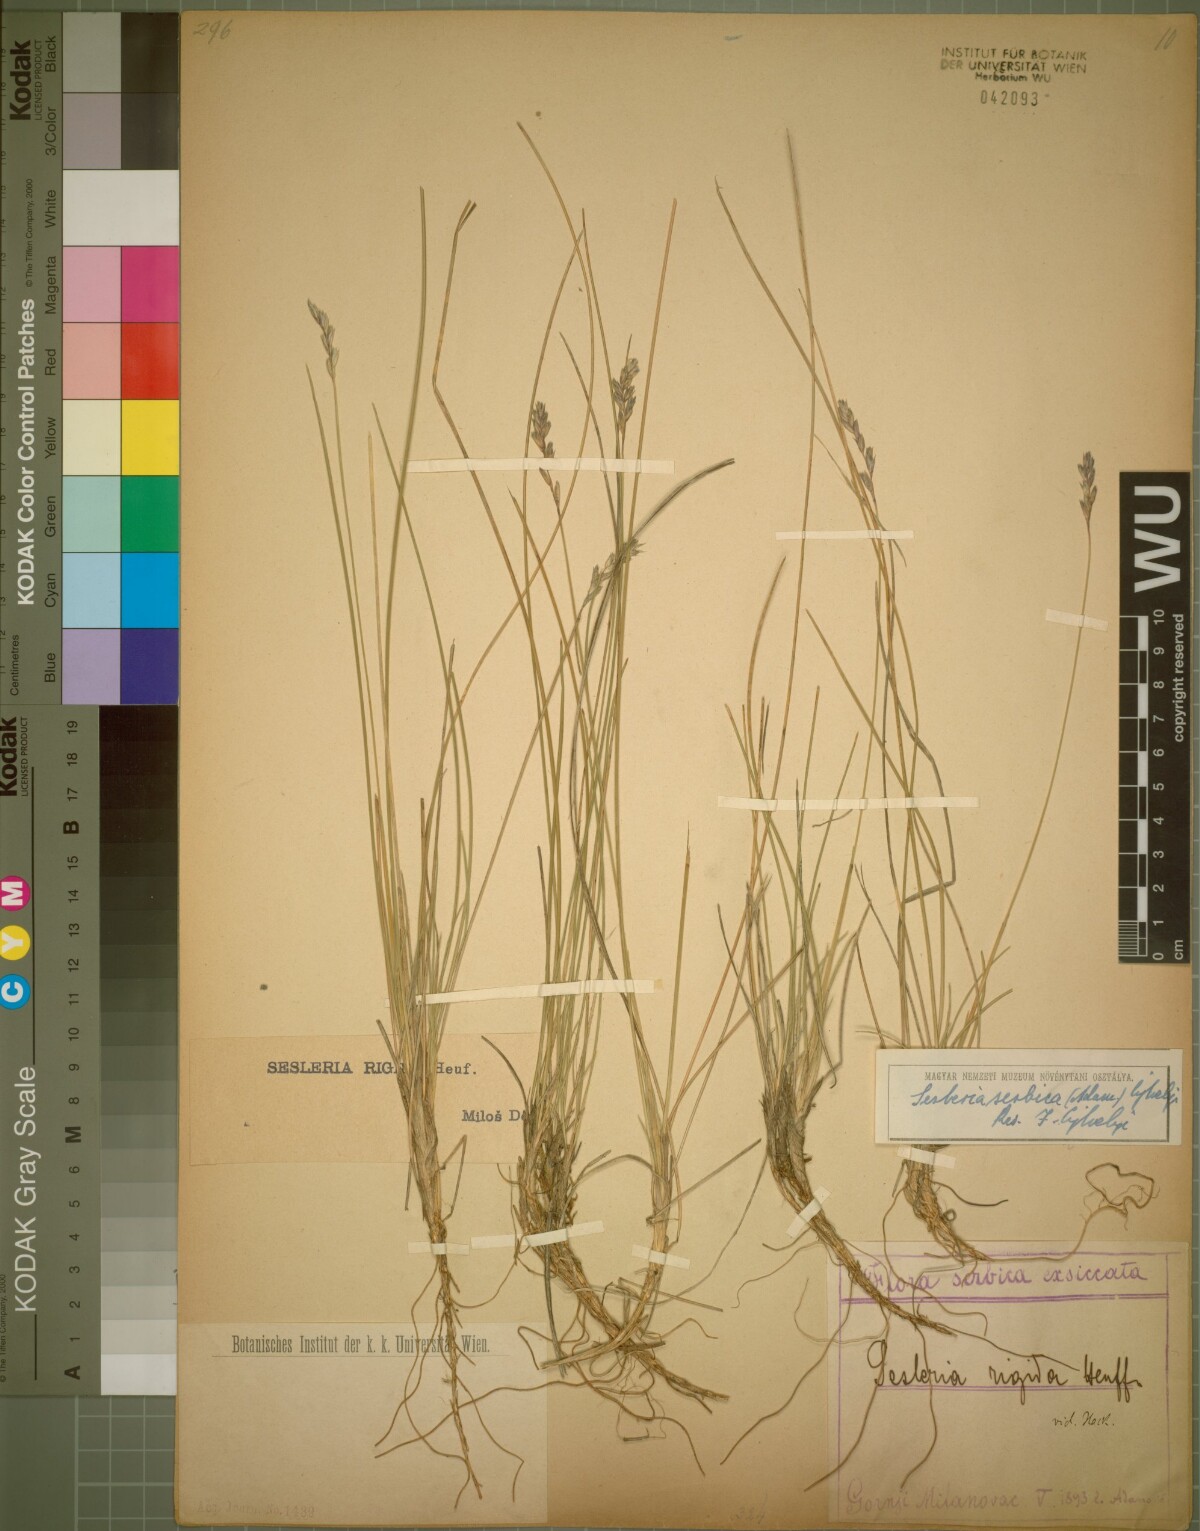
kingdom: Plantae
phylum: Tracheophyta
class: Liliopsida
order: Poales
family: Poaceae
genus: Sesleria
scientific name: Sesleria serbica
